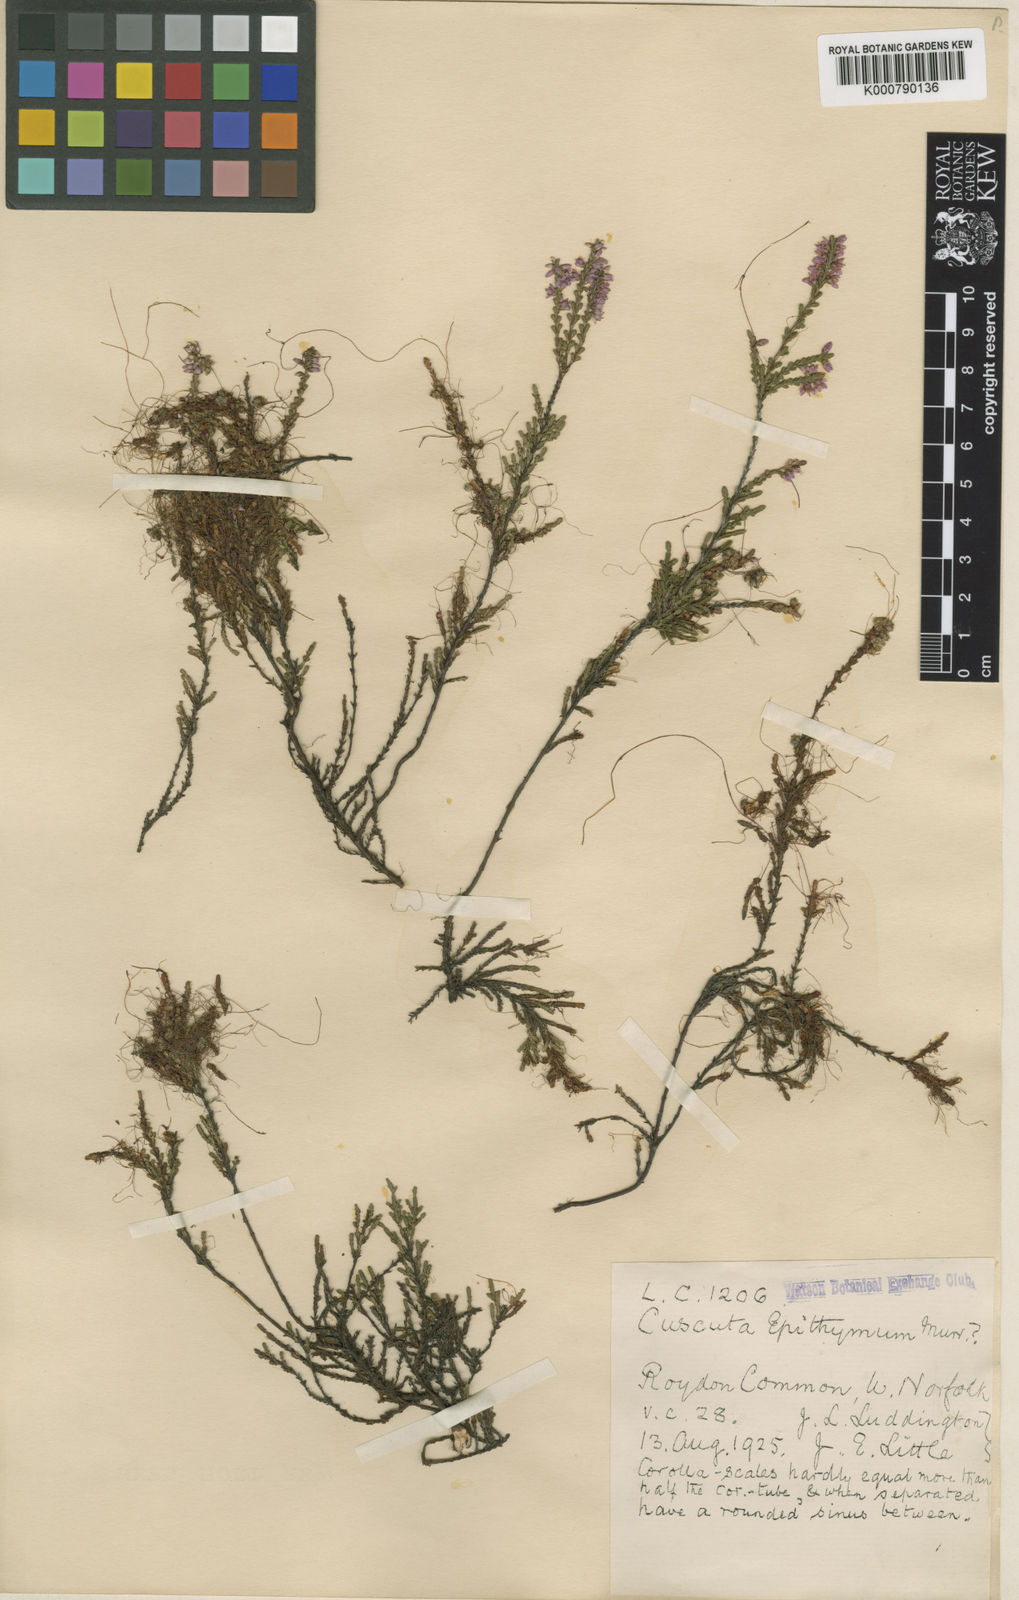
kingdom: Plantae
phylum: Tracheophyta
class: Magnoliopsida
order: Solanales
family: Convolvulaceae
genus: Cuscuta
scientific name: Cuscuta epithymum
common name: Clover dodder
